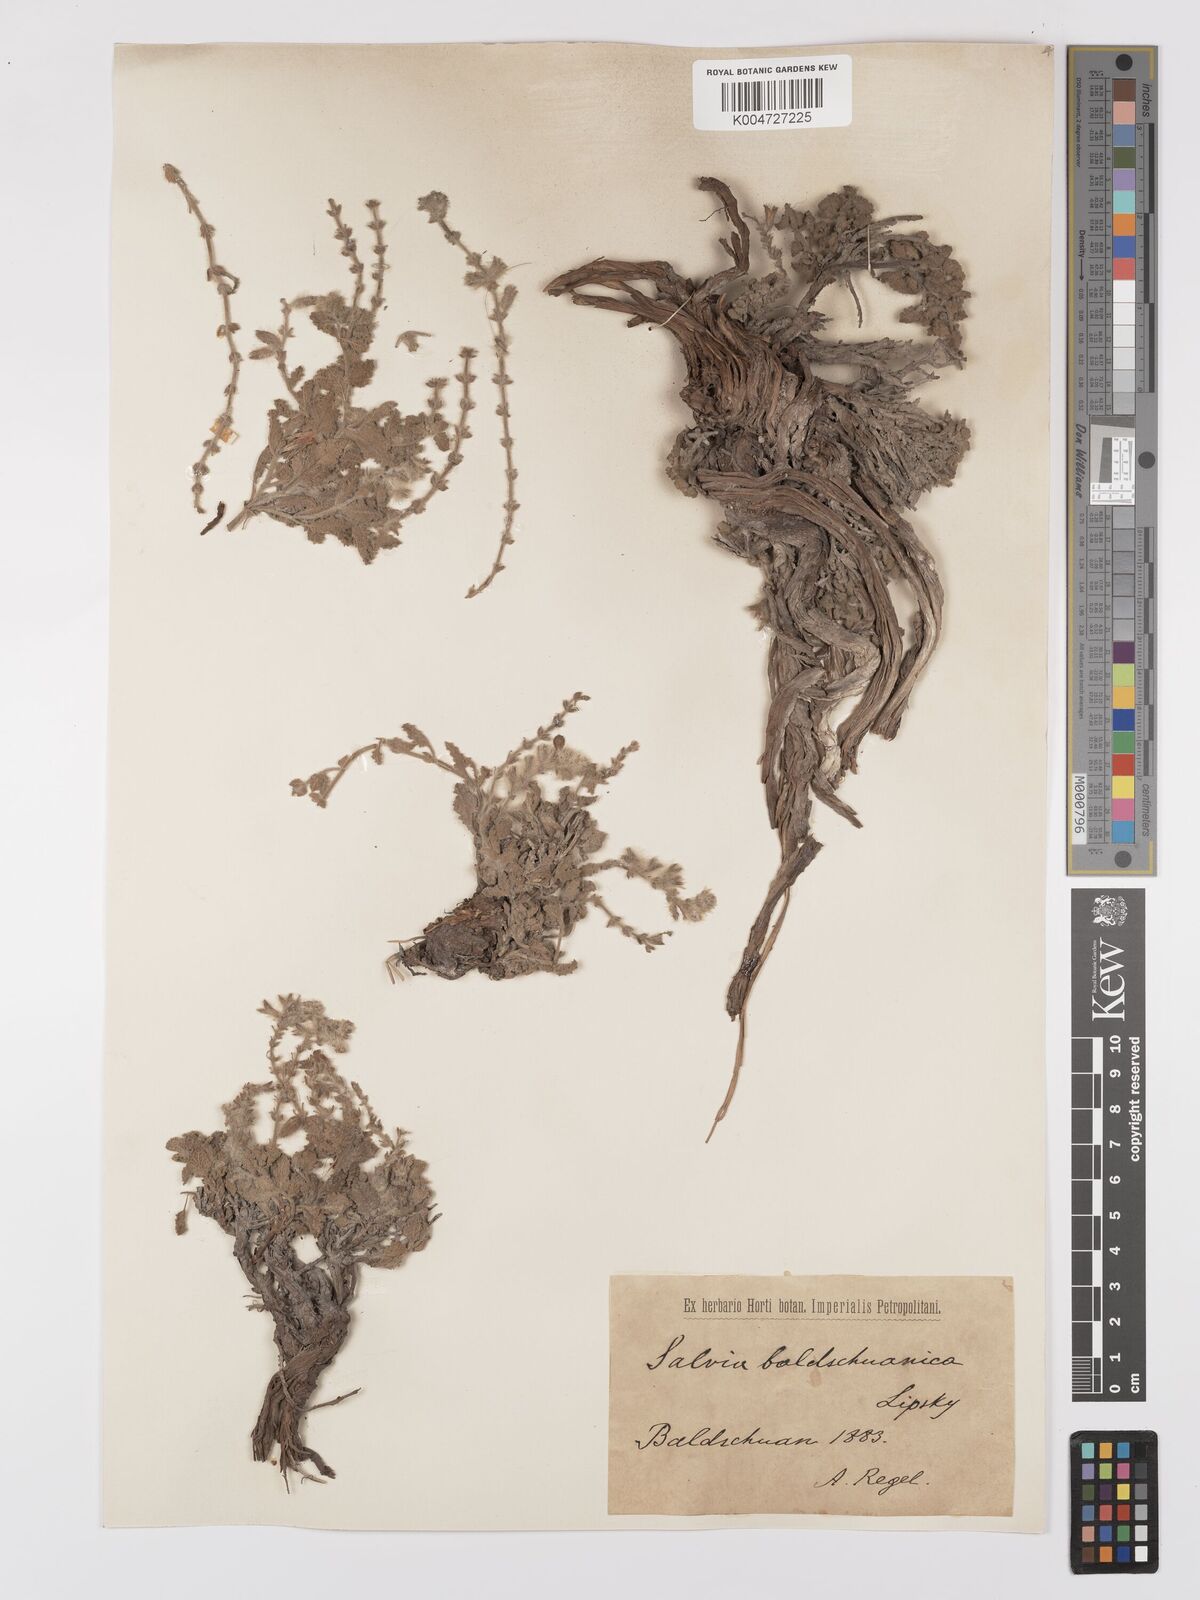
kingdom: Plantae
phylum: Tracheophyta
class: Magnoliopsida
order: Lamiales
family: Lamiaceae
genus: Salvia
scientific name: Salvia baldshuanica
